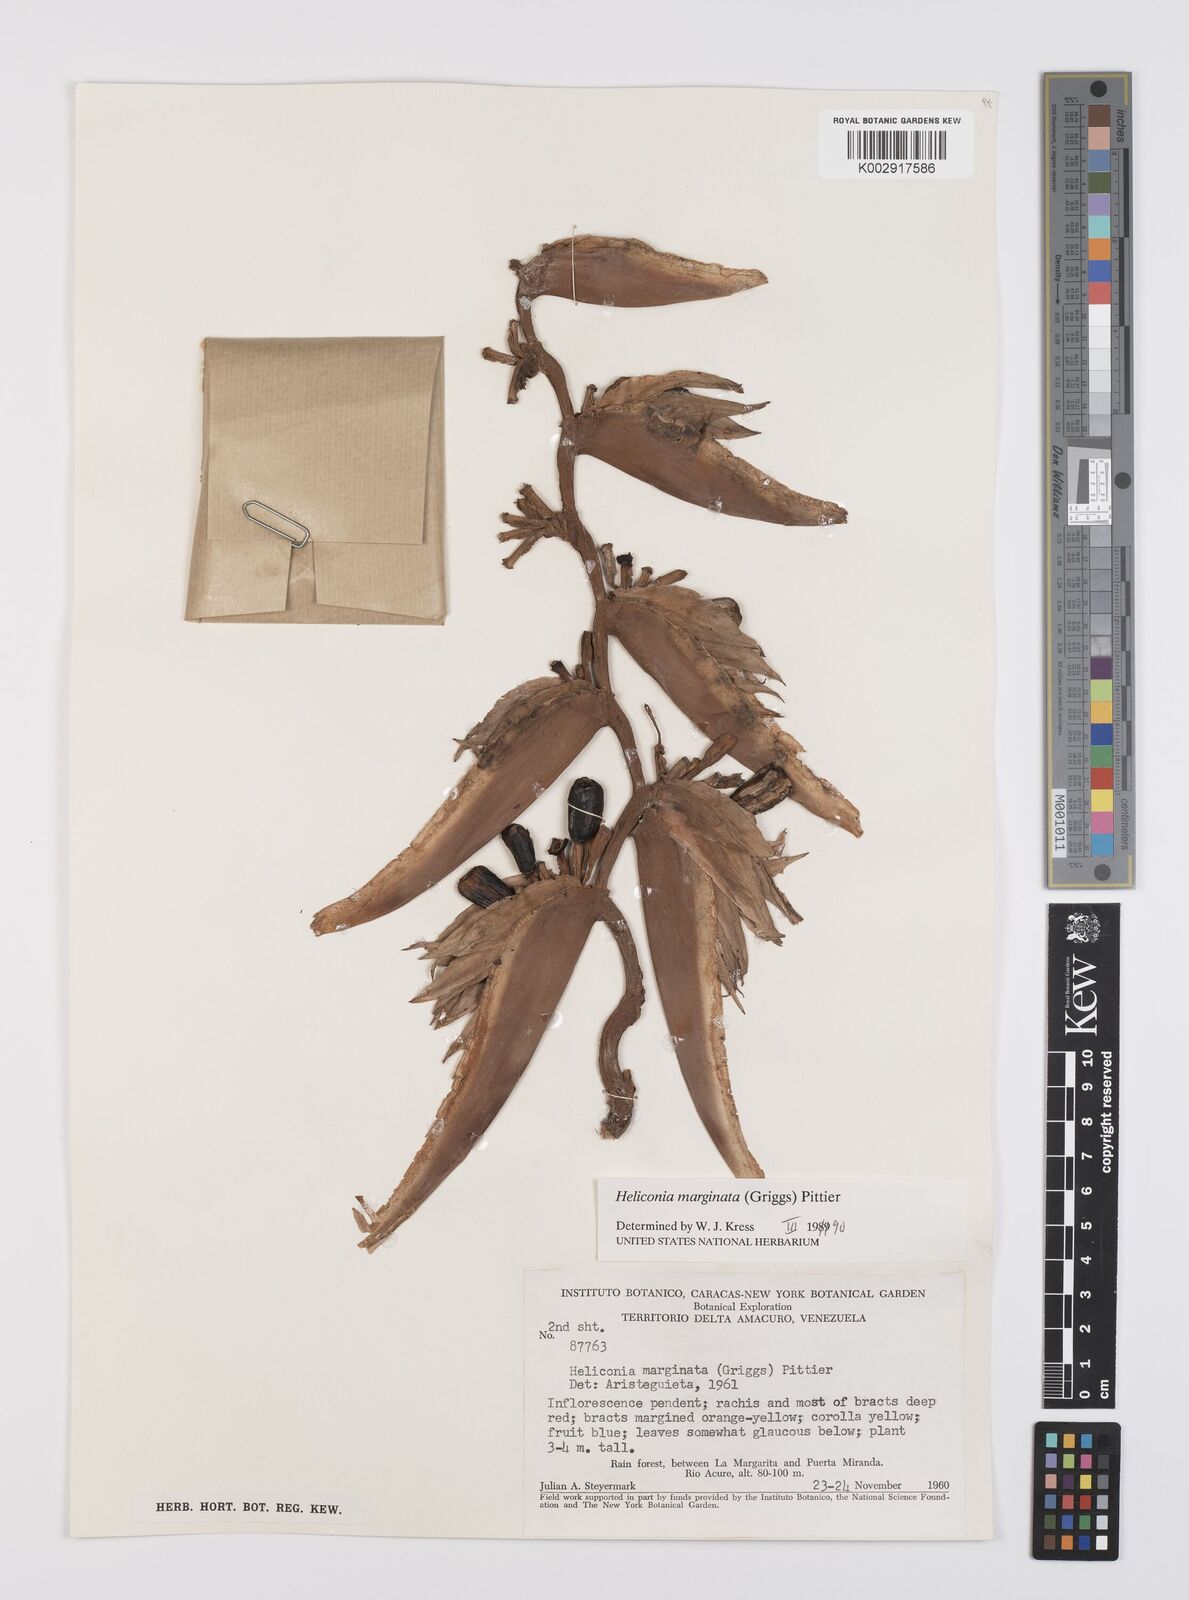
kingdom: Plantae
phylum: Tracheophyta
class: Liliopsida
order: Zingiberales
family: Heliconiaceae
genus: Heliconia
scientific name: Heliconia marginata
